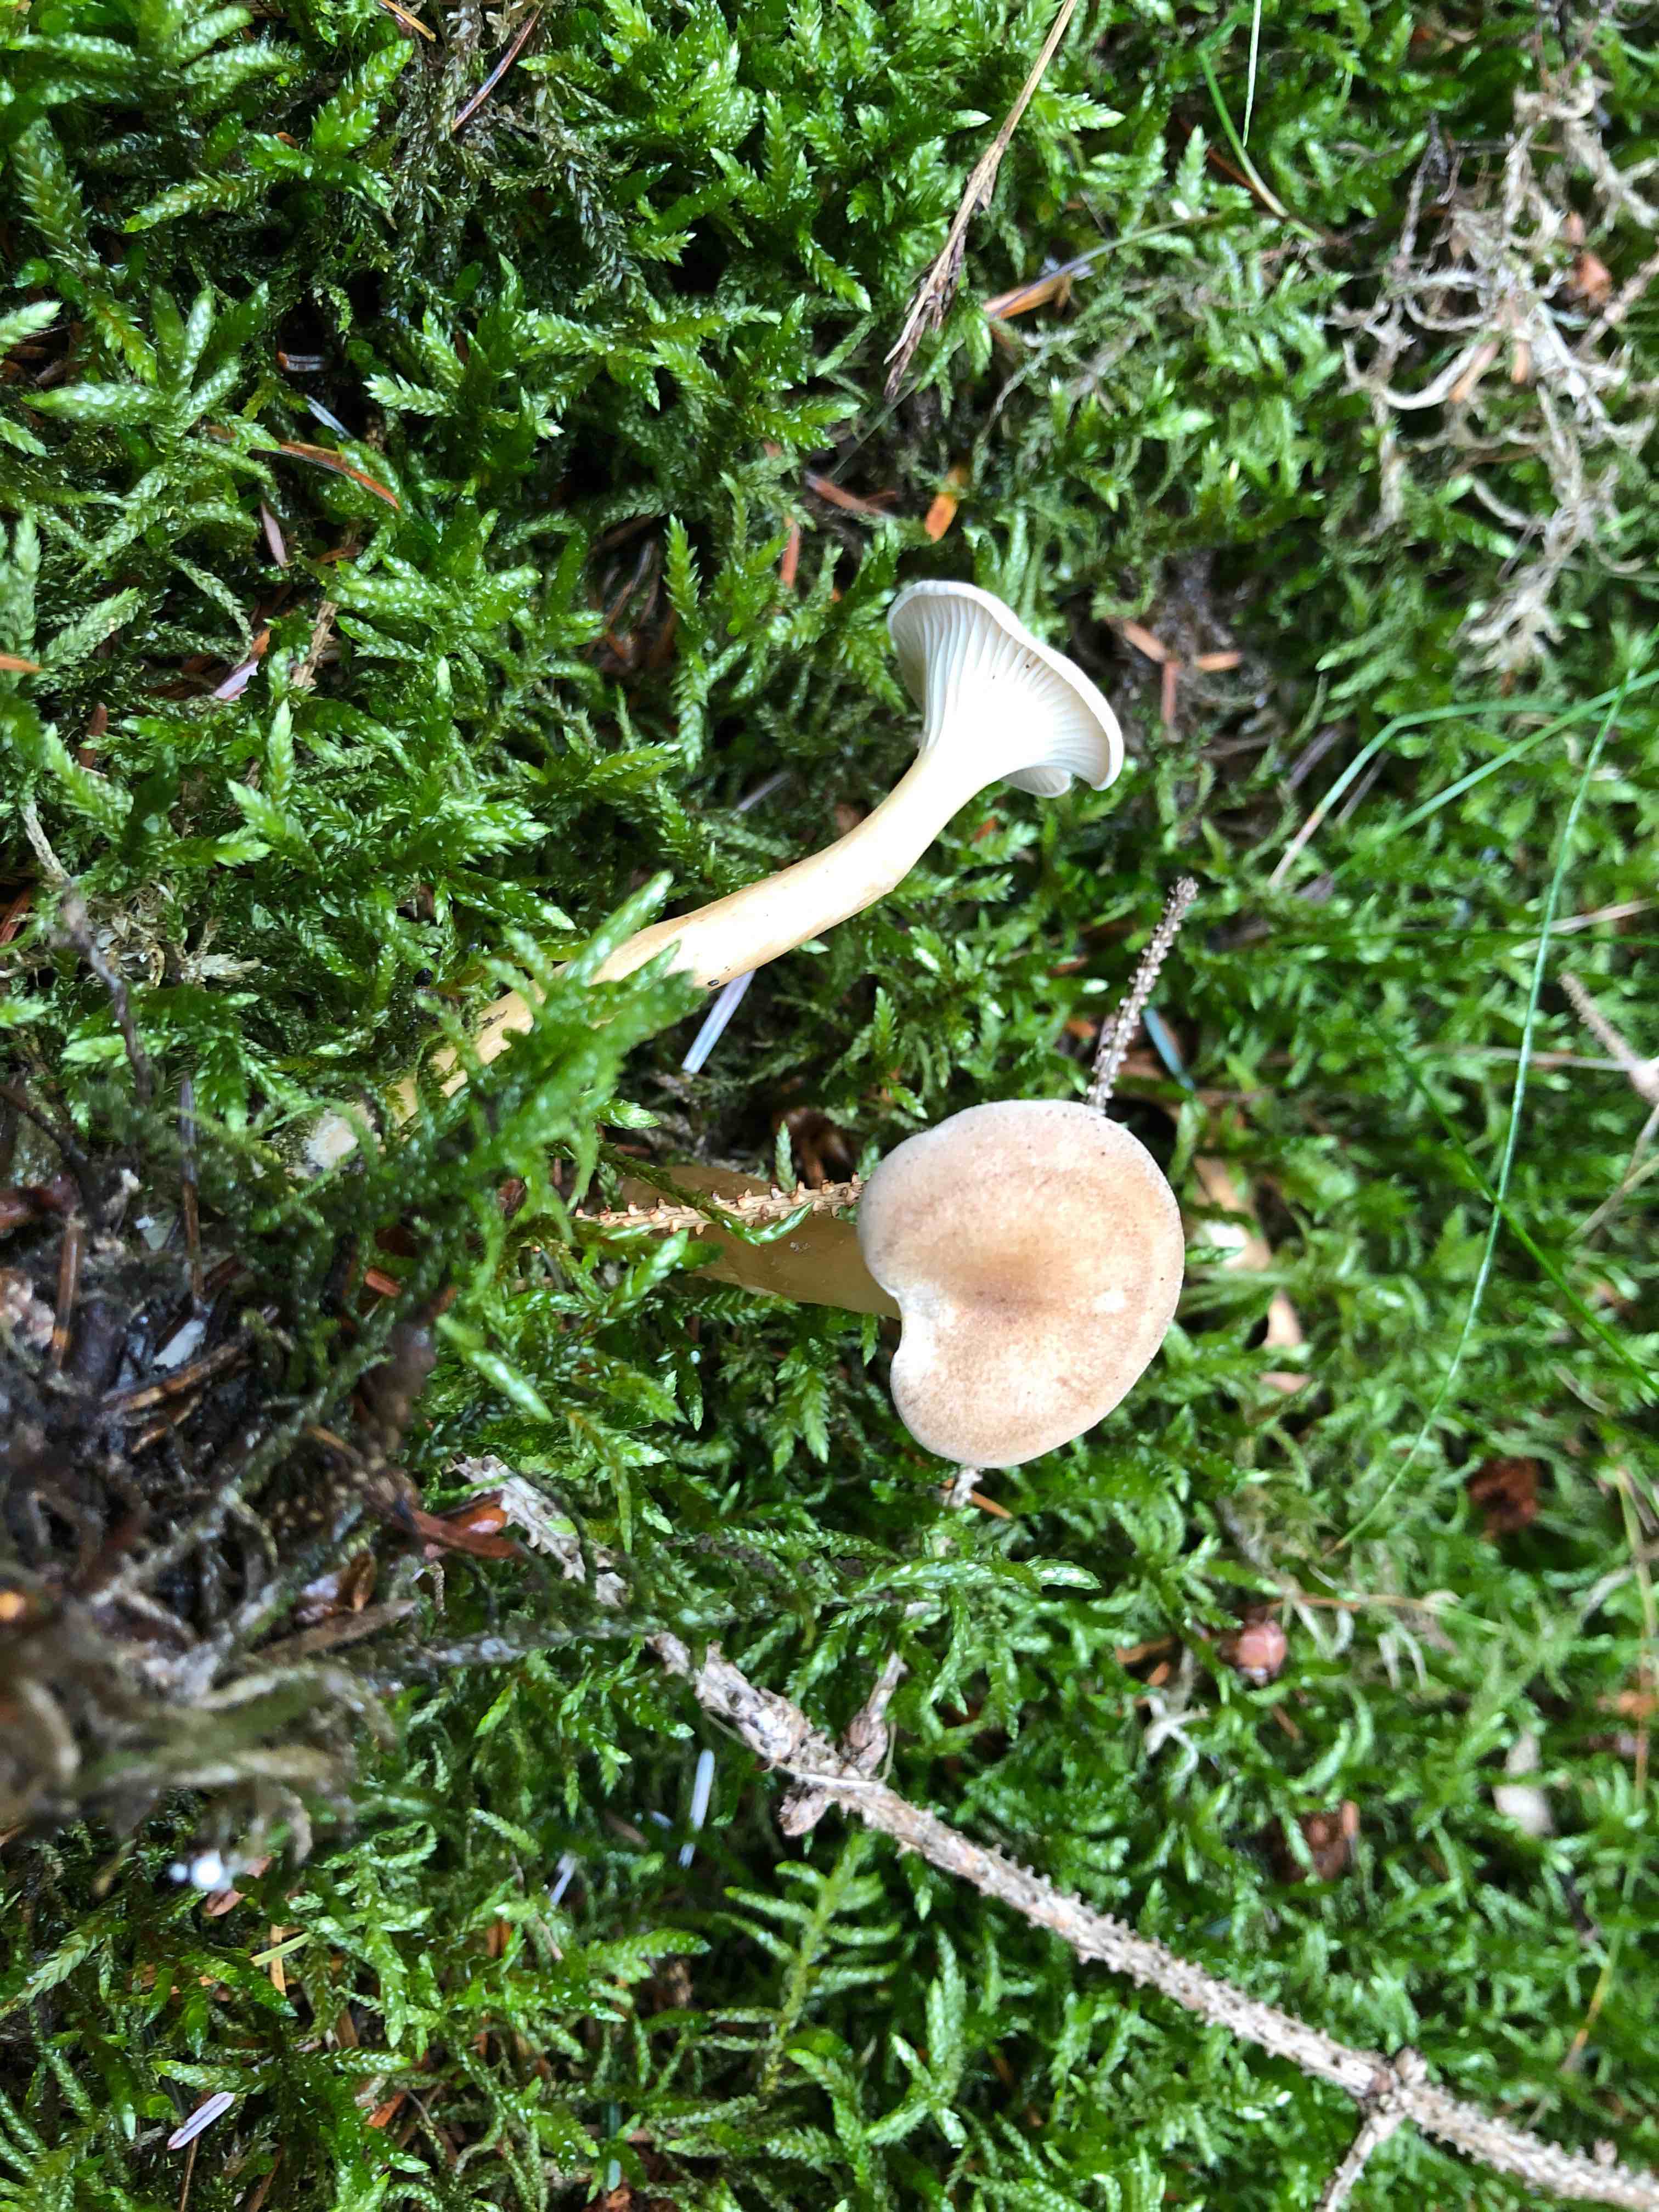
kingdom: Fungi
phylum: Basidiomycota
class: Agaricomycetes
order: Agaricales
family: Tricholomataceae
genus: Infundibulicybe
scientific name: Infundibulicybe
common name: tragthat
